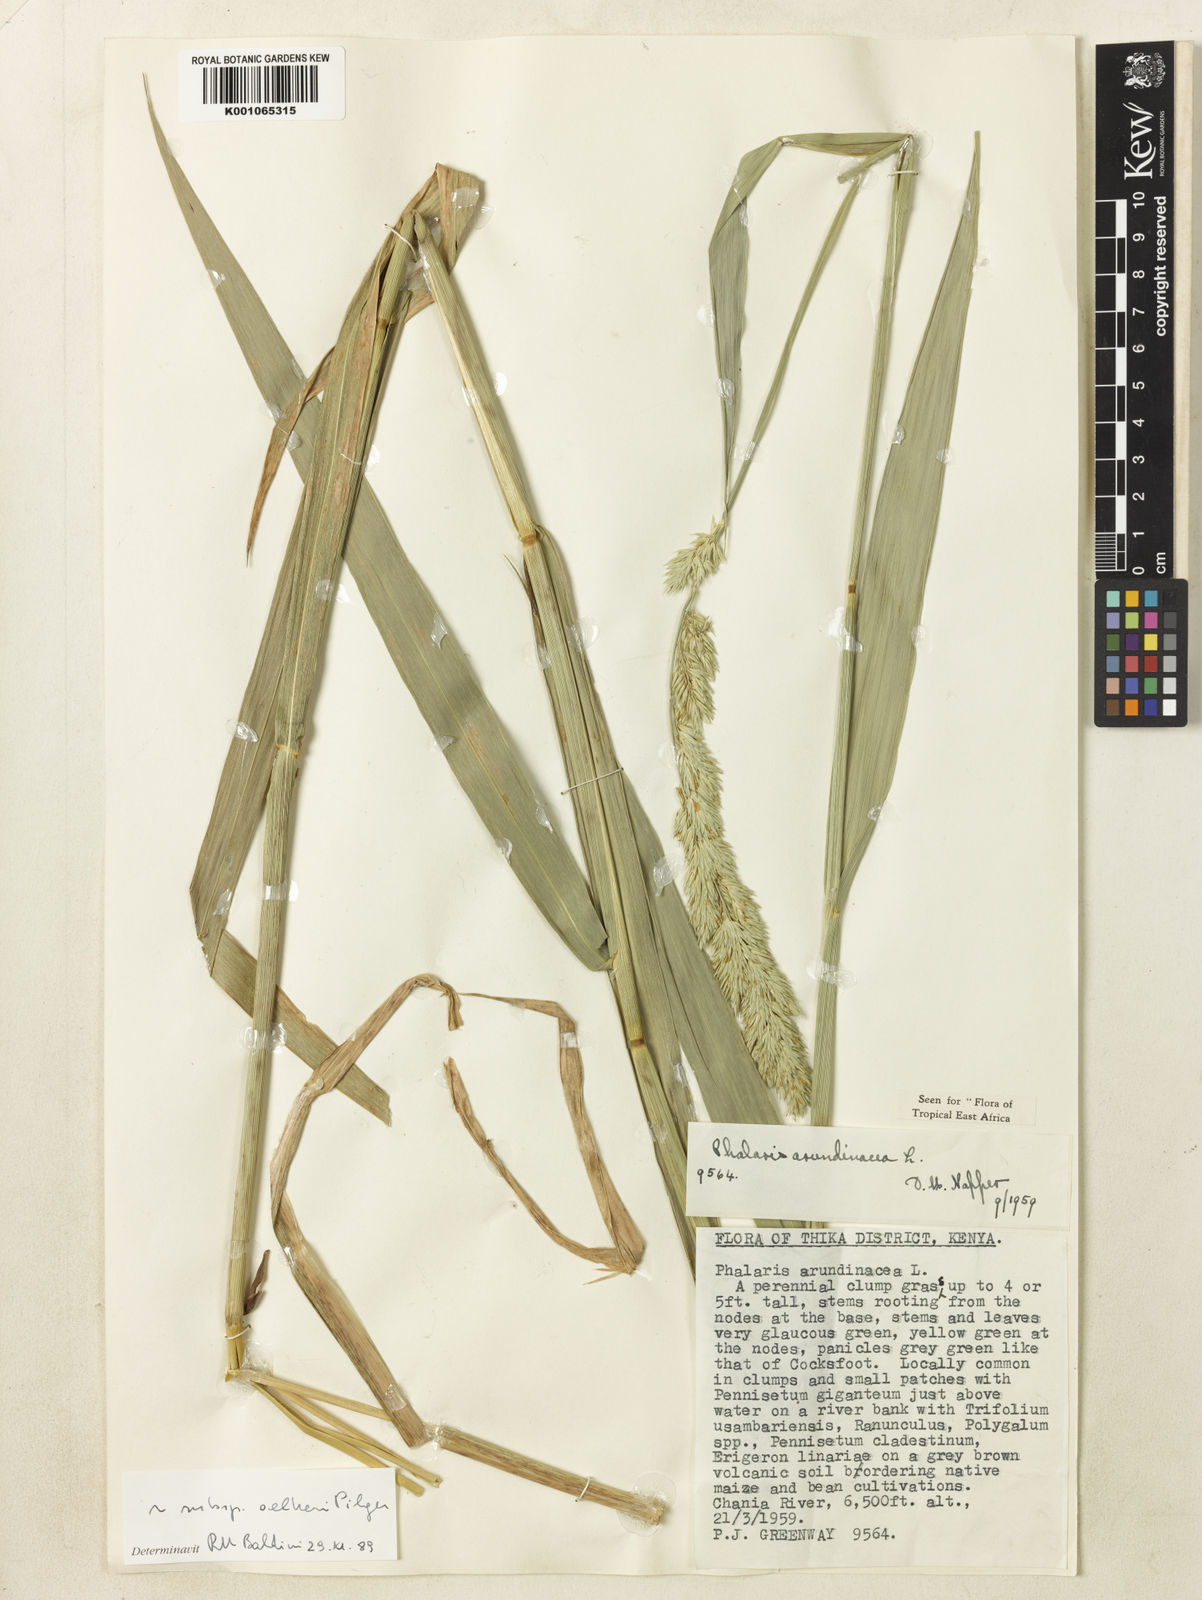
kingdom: Plantae
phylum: Tracheophyta
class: Liliopsida
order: Poales
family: Poaceae
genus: Phalaris
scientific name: Phalaris arundinacea
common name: Reed canary-grass
